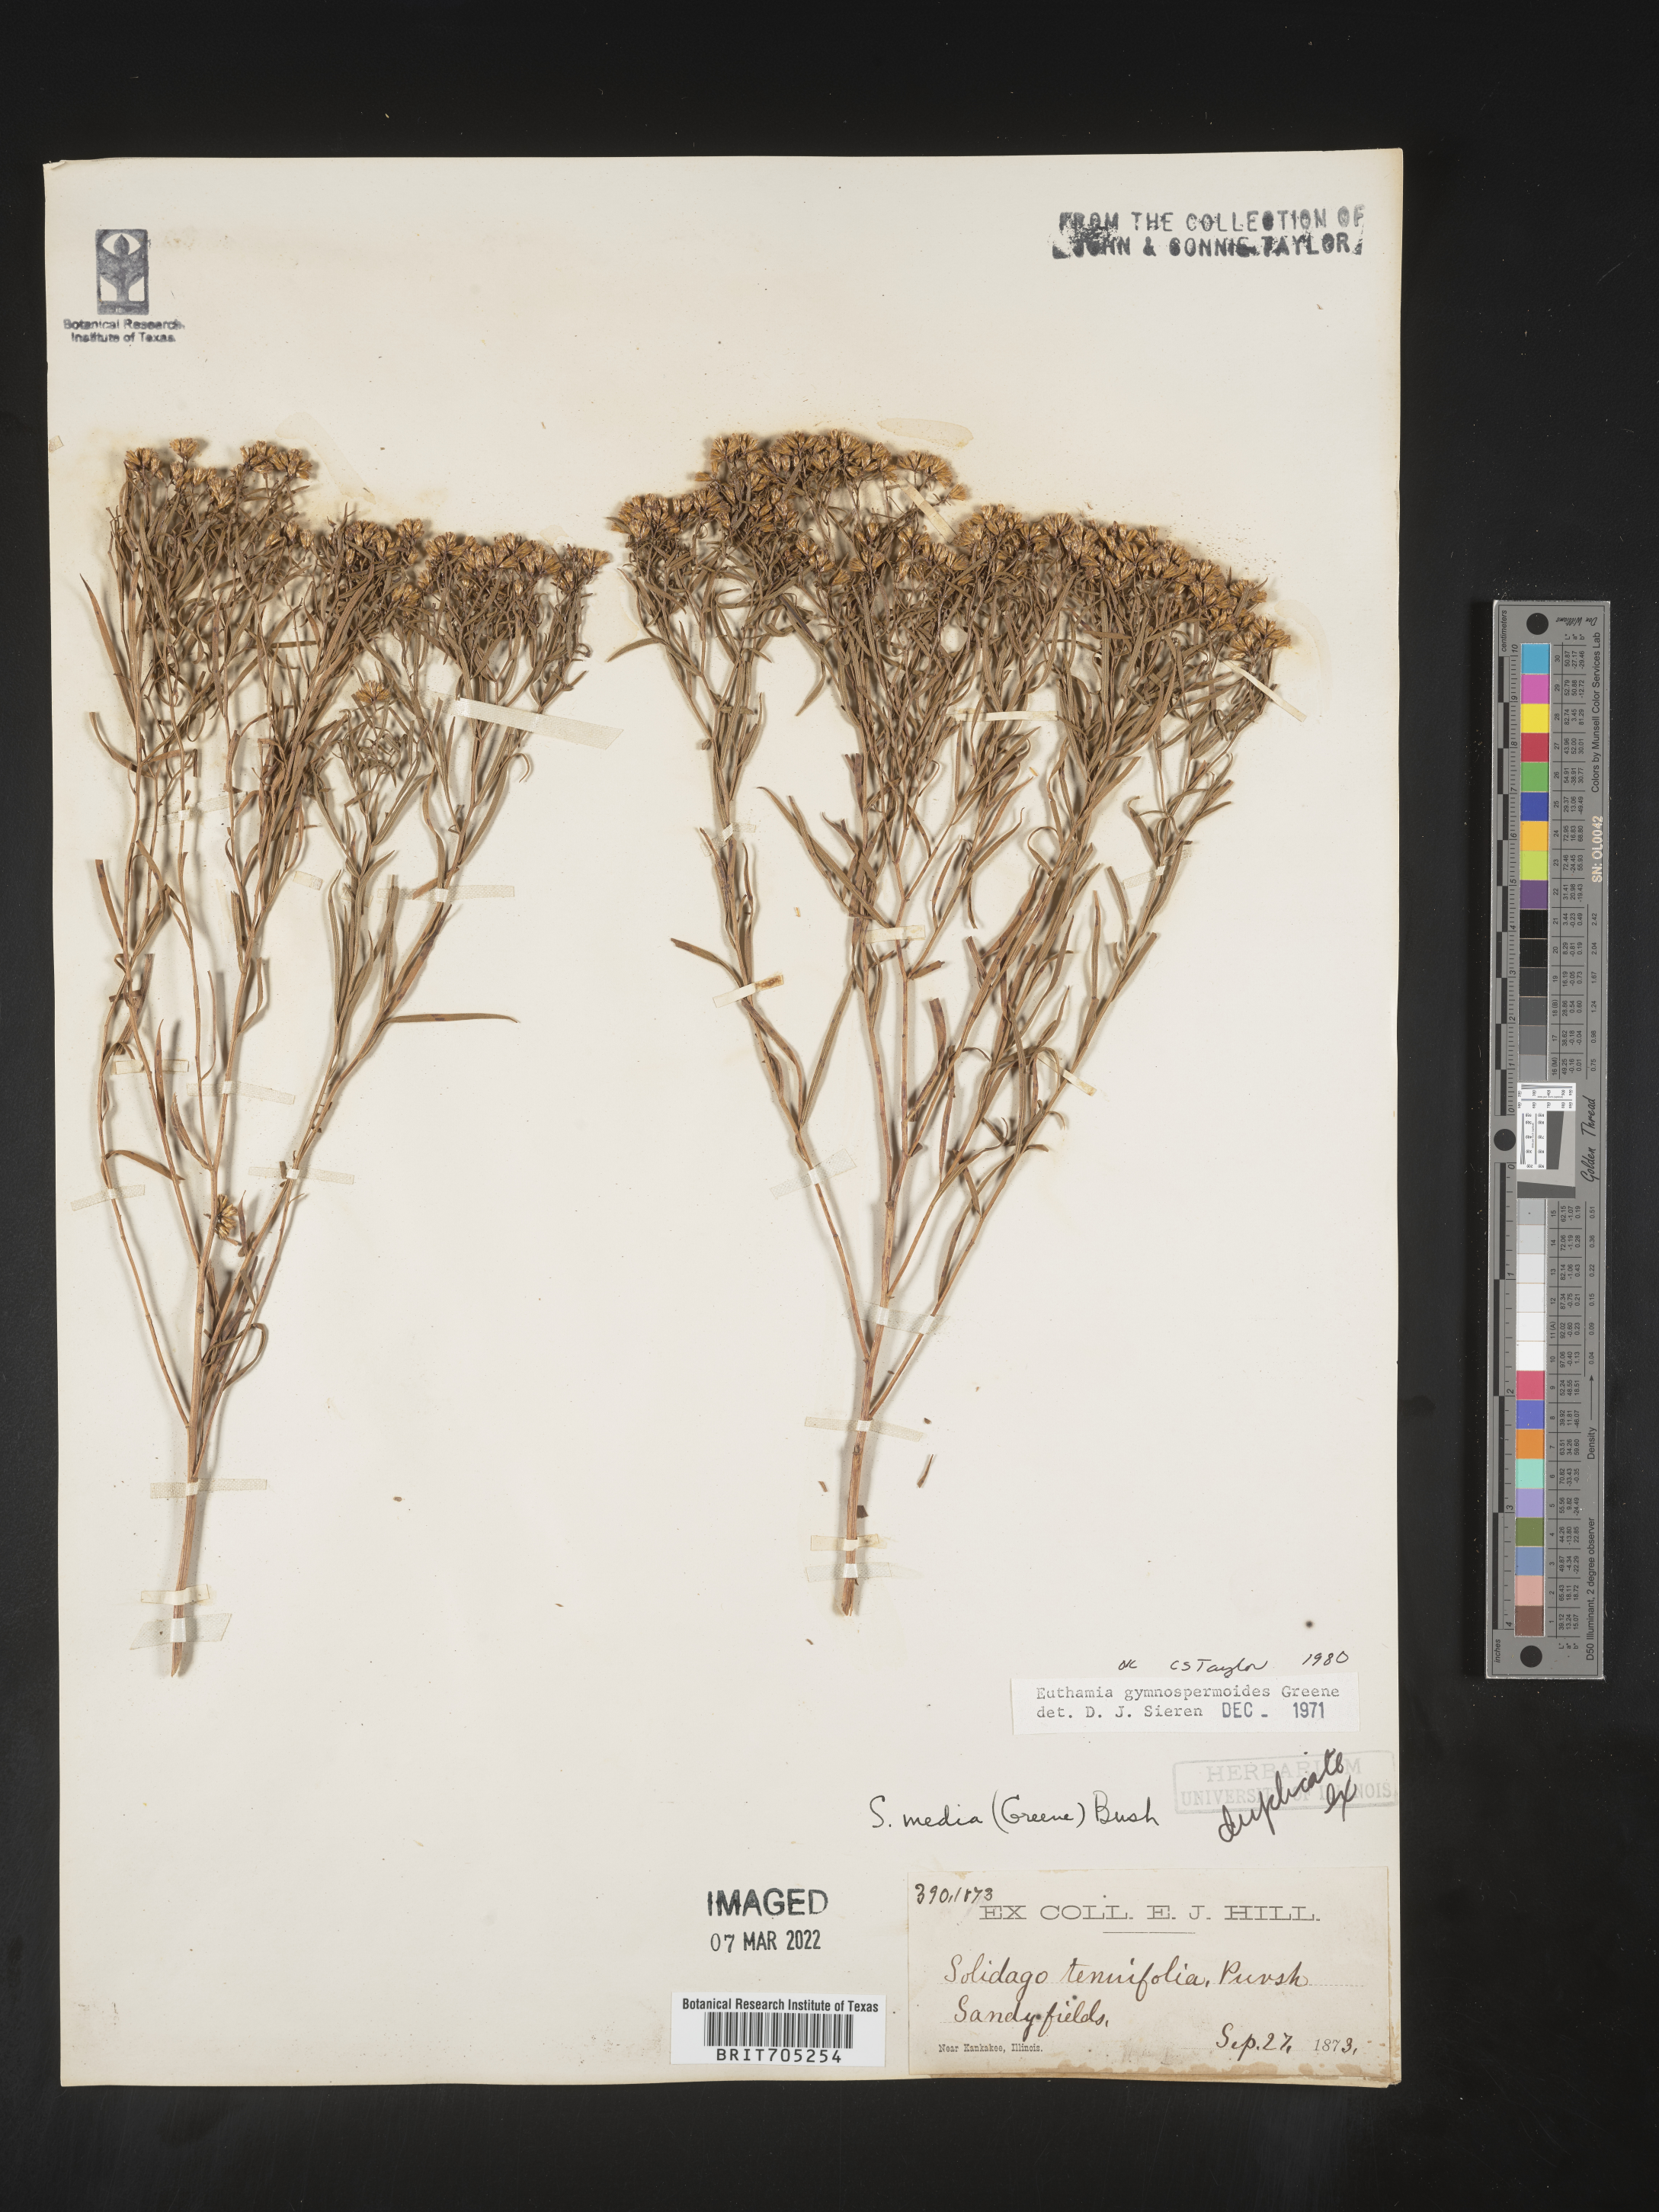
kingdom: Plantae
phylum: Tracheophyta
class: Magnoliopsida
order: Asterales
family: Asteraceae
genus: Euthamia
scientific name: Euthamia gymnospermoides
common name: Great plains goldentop
